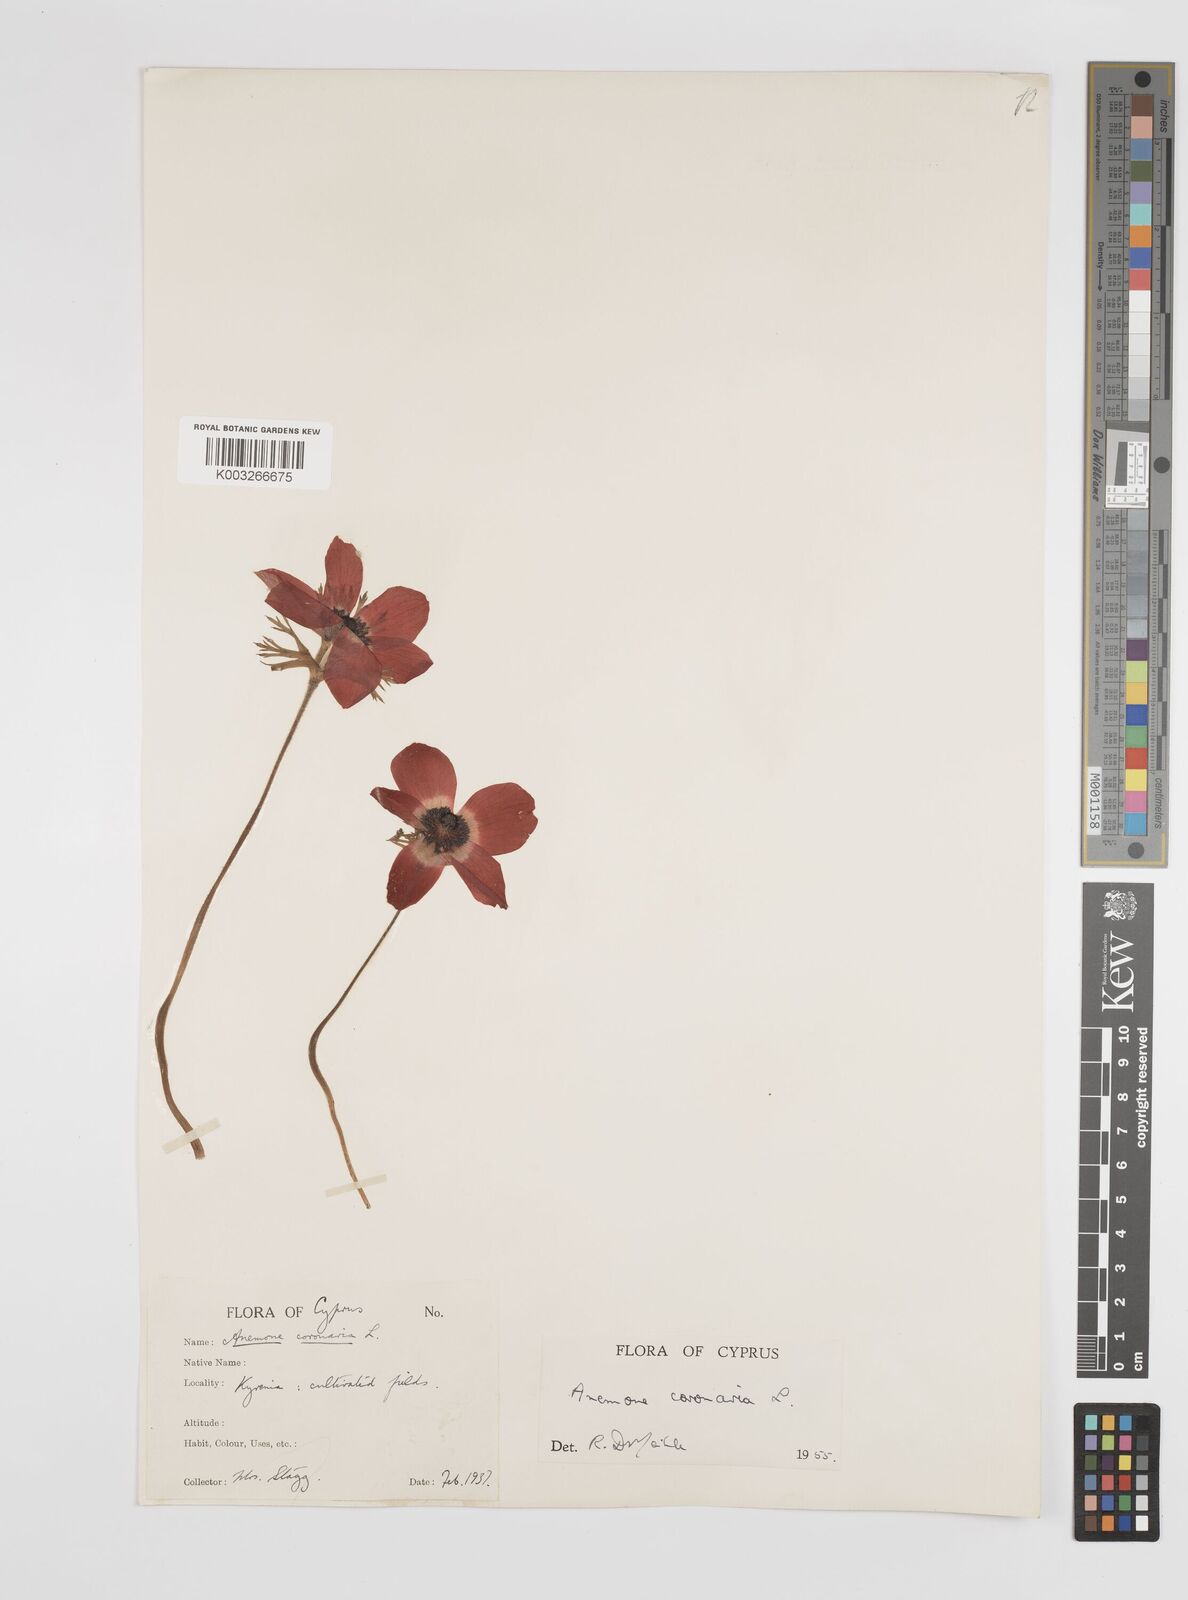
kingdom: Plantae
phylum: Tracheophyta
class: Magnoliopsida
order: Ranunculales
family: Ranunculaceae
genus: Anemone
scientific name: Anemone coronaria
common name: Poppy anemone
